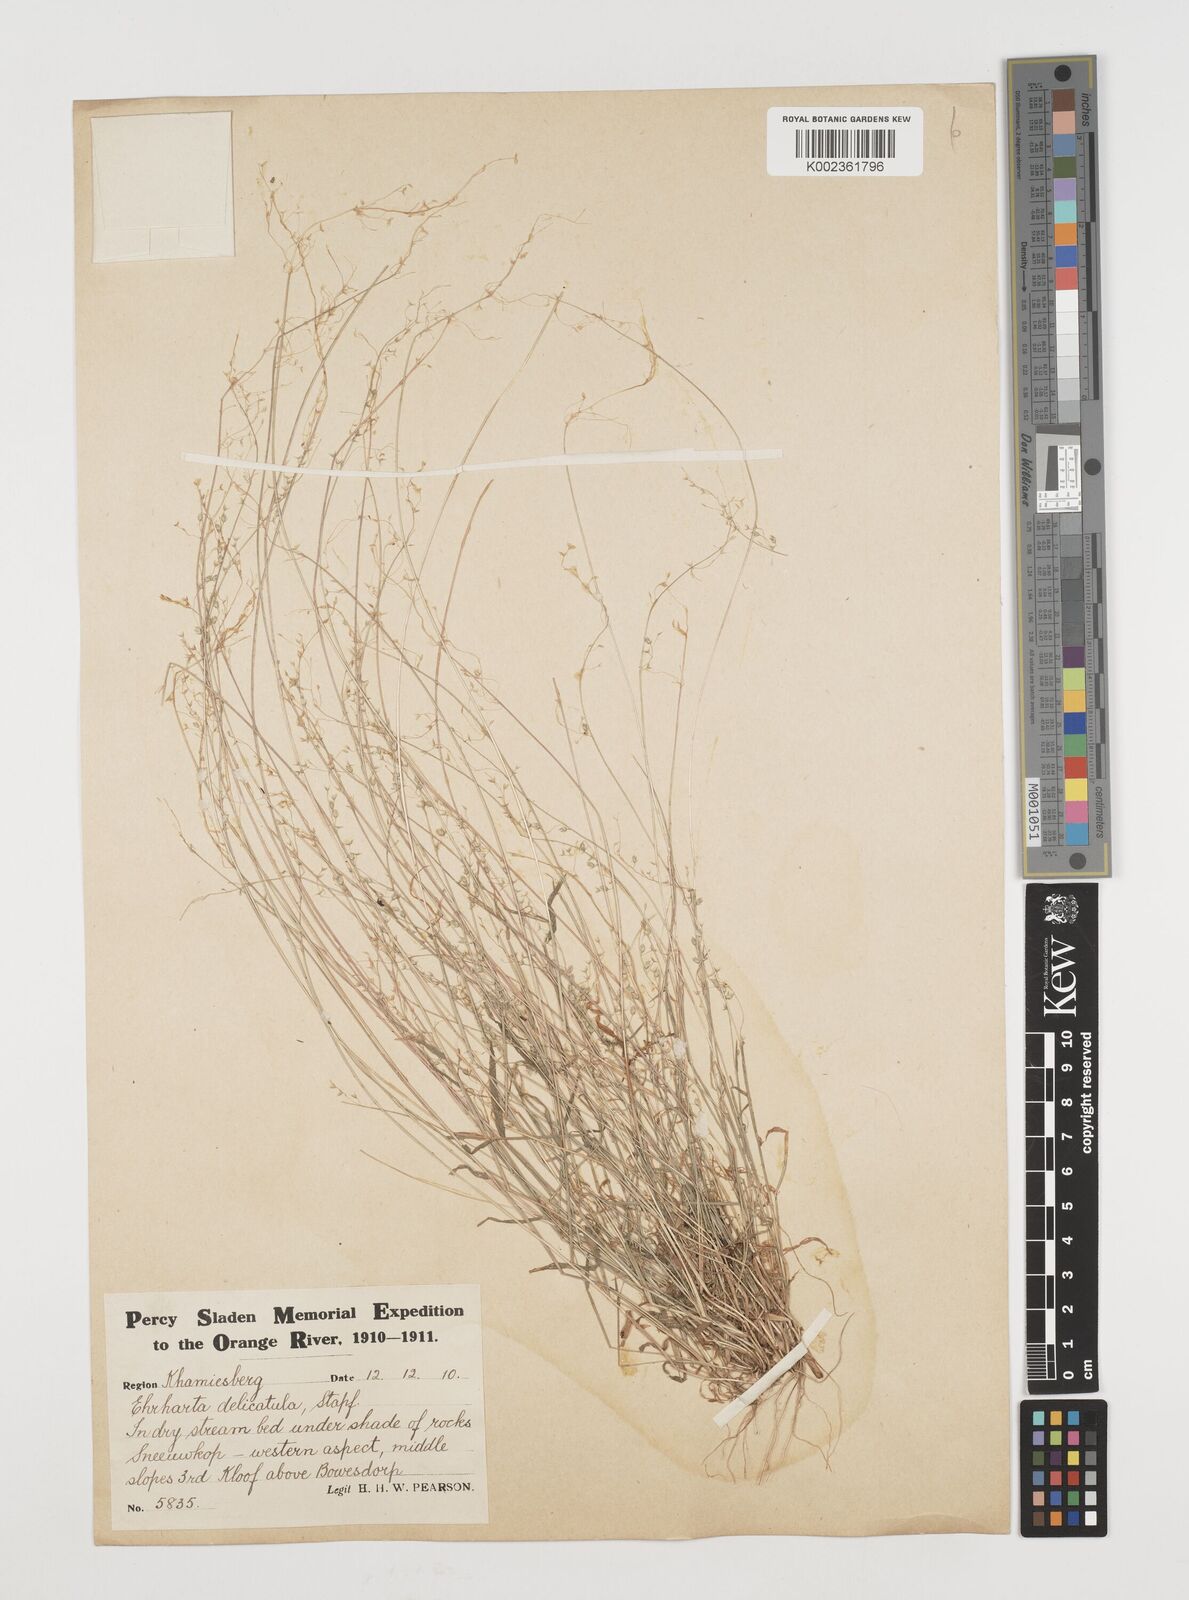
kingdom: Plantae
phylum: Tracheophyta
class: Liliopsida
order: Poales
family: Poaceae
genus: Ehrharta
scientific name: Ehrharta delicatula
